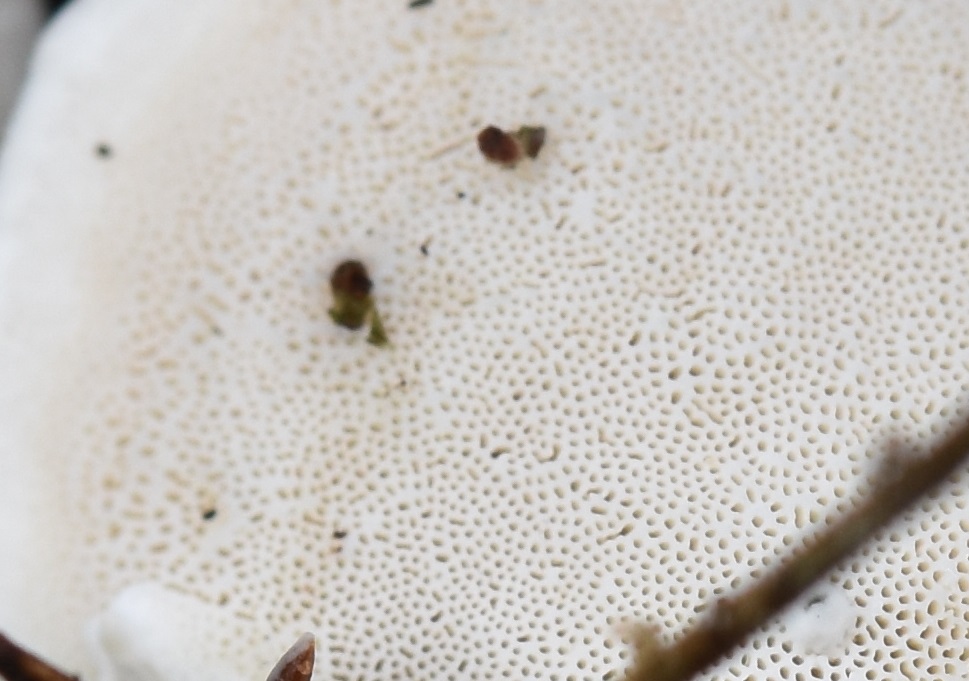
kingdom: Fungi
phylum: Basidiomycota
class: Agaricomycetes
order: Polyporales
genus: Amaropostia
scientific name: Amaropostia stiptica
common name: bitter kødporesvamp
